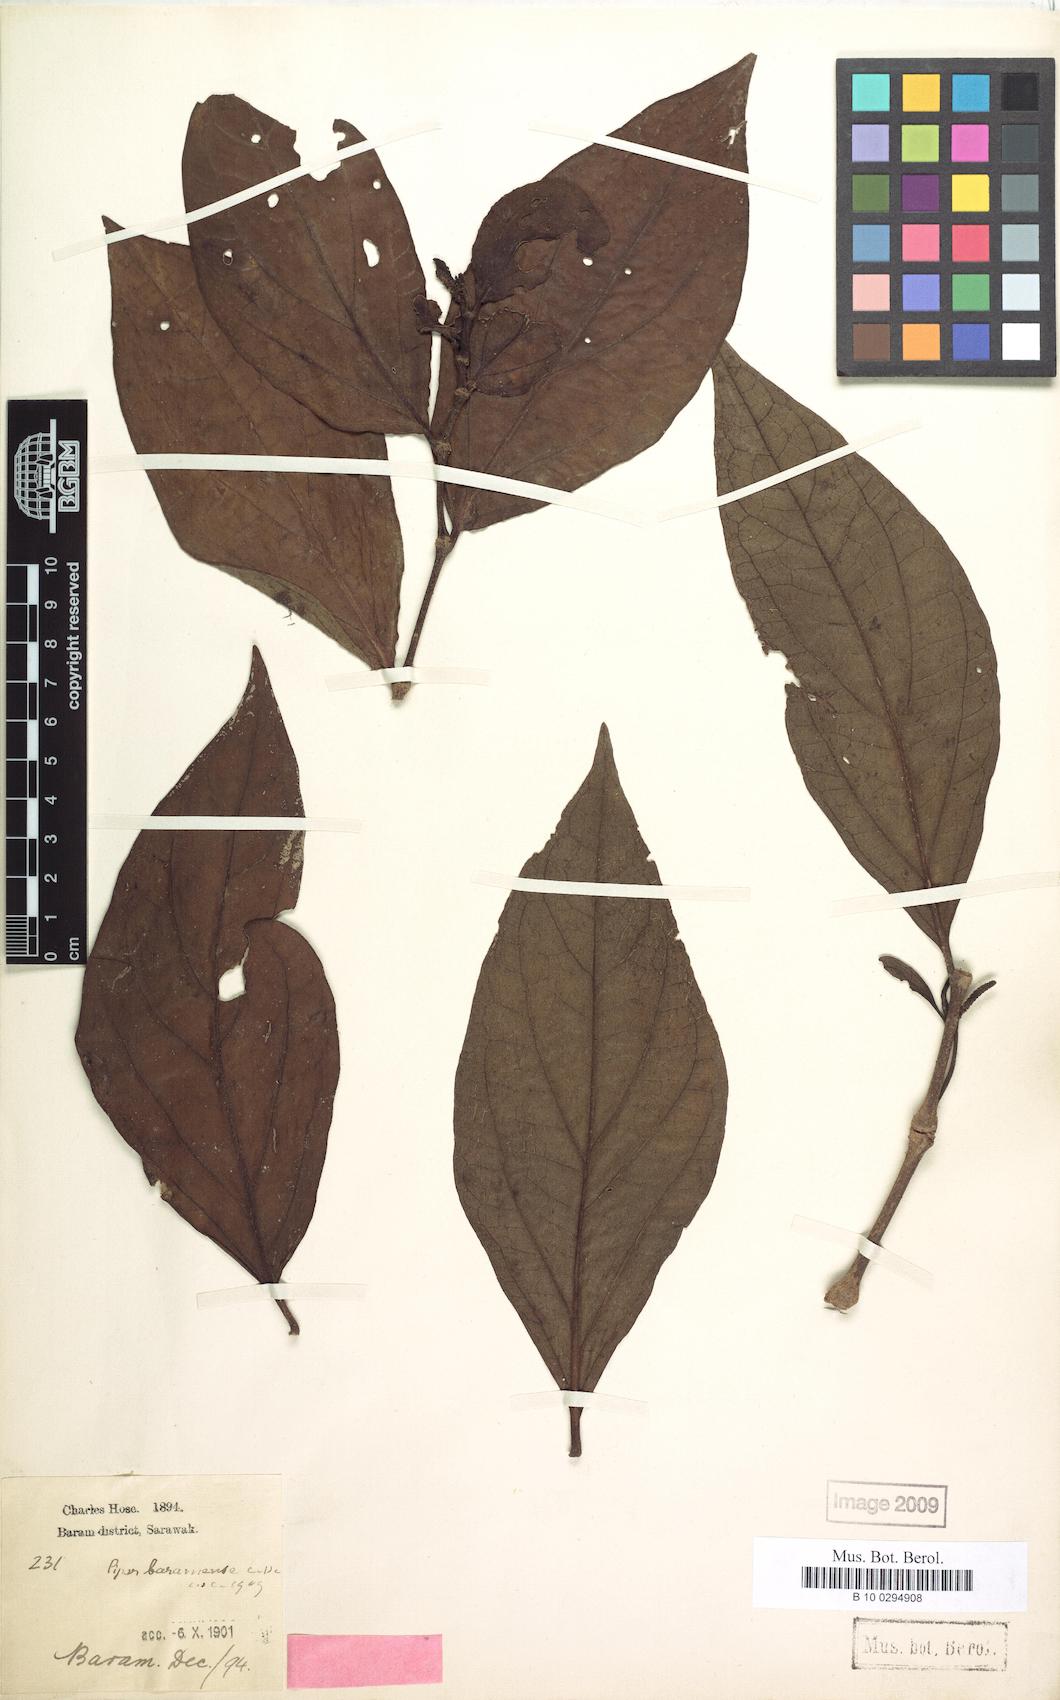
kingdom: Plantae
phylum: Tracheophyta
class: Magnoliopsida
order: Piperales
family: Piperaceae
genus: Piper
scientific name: Piper baramense
